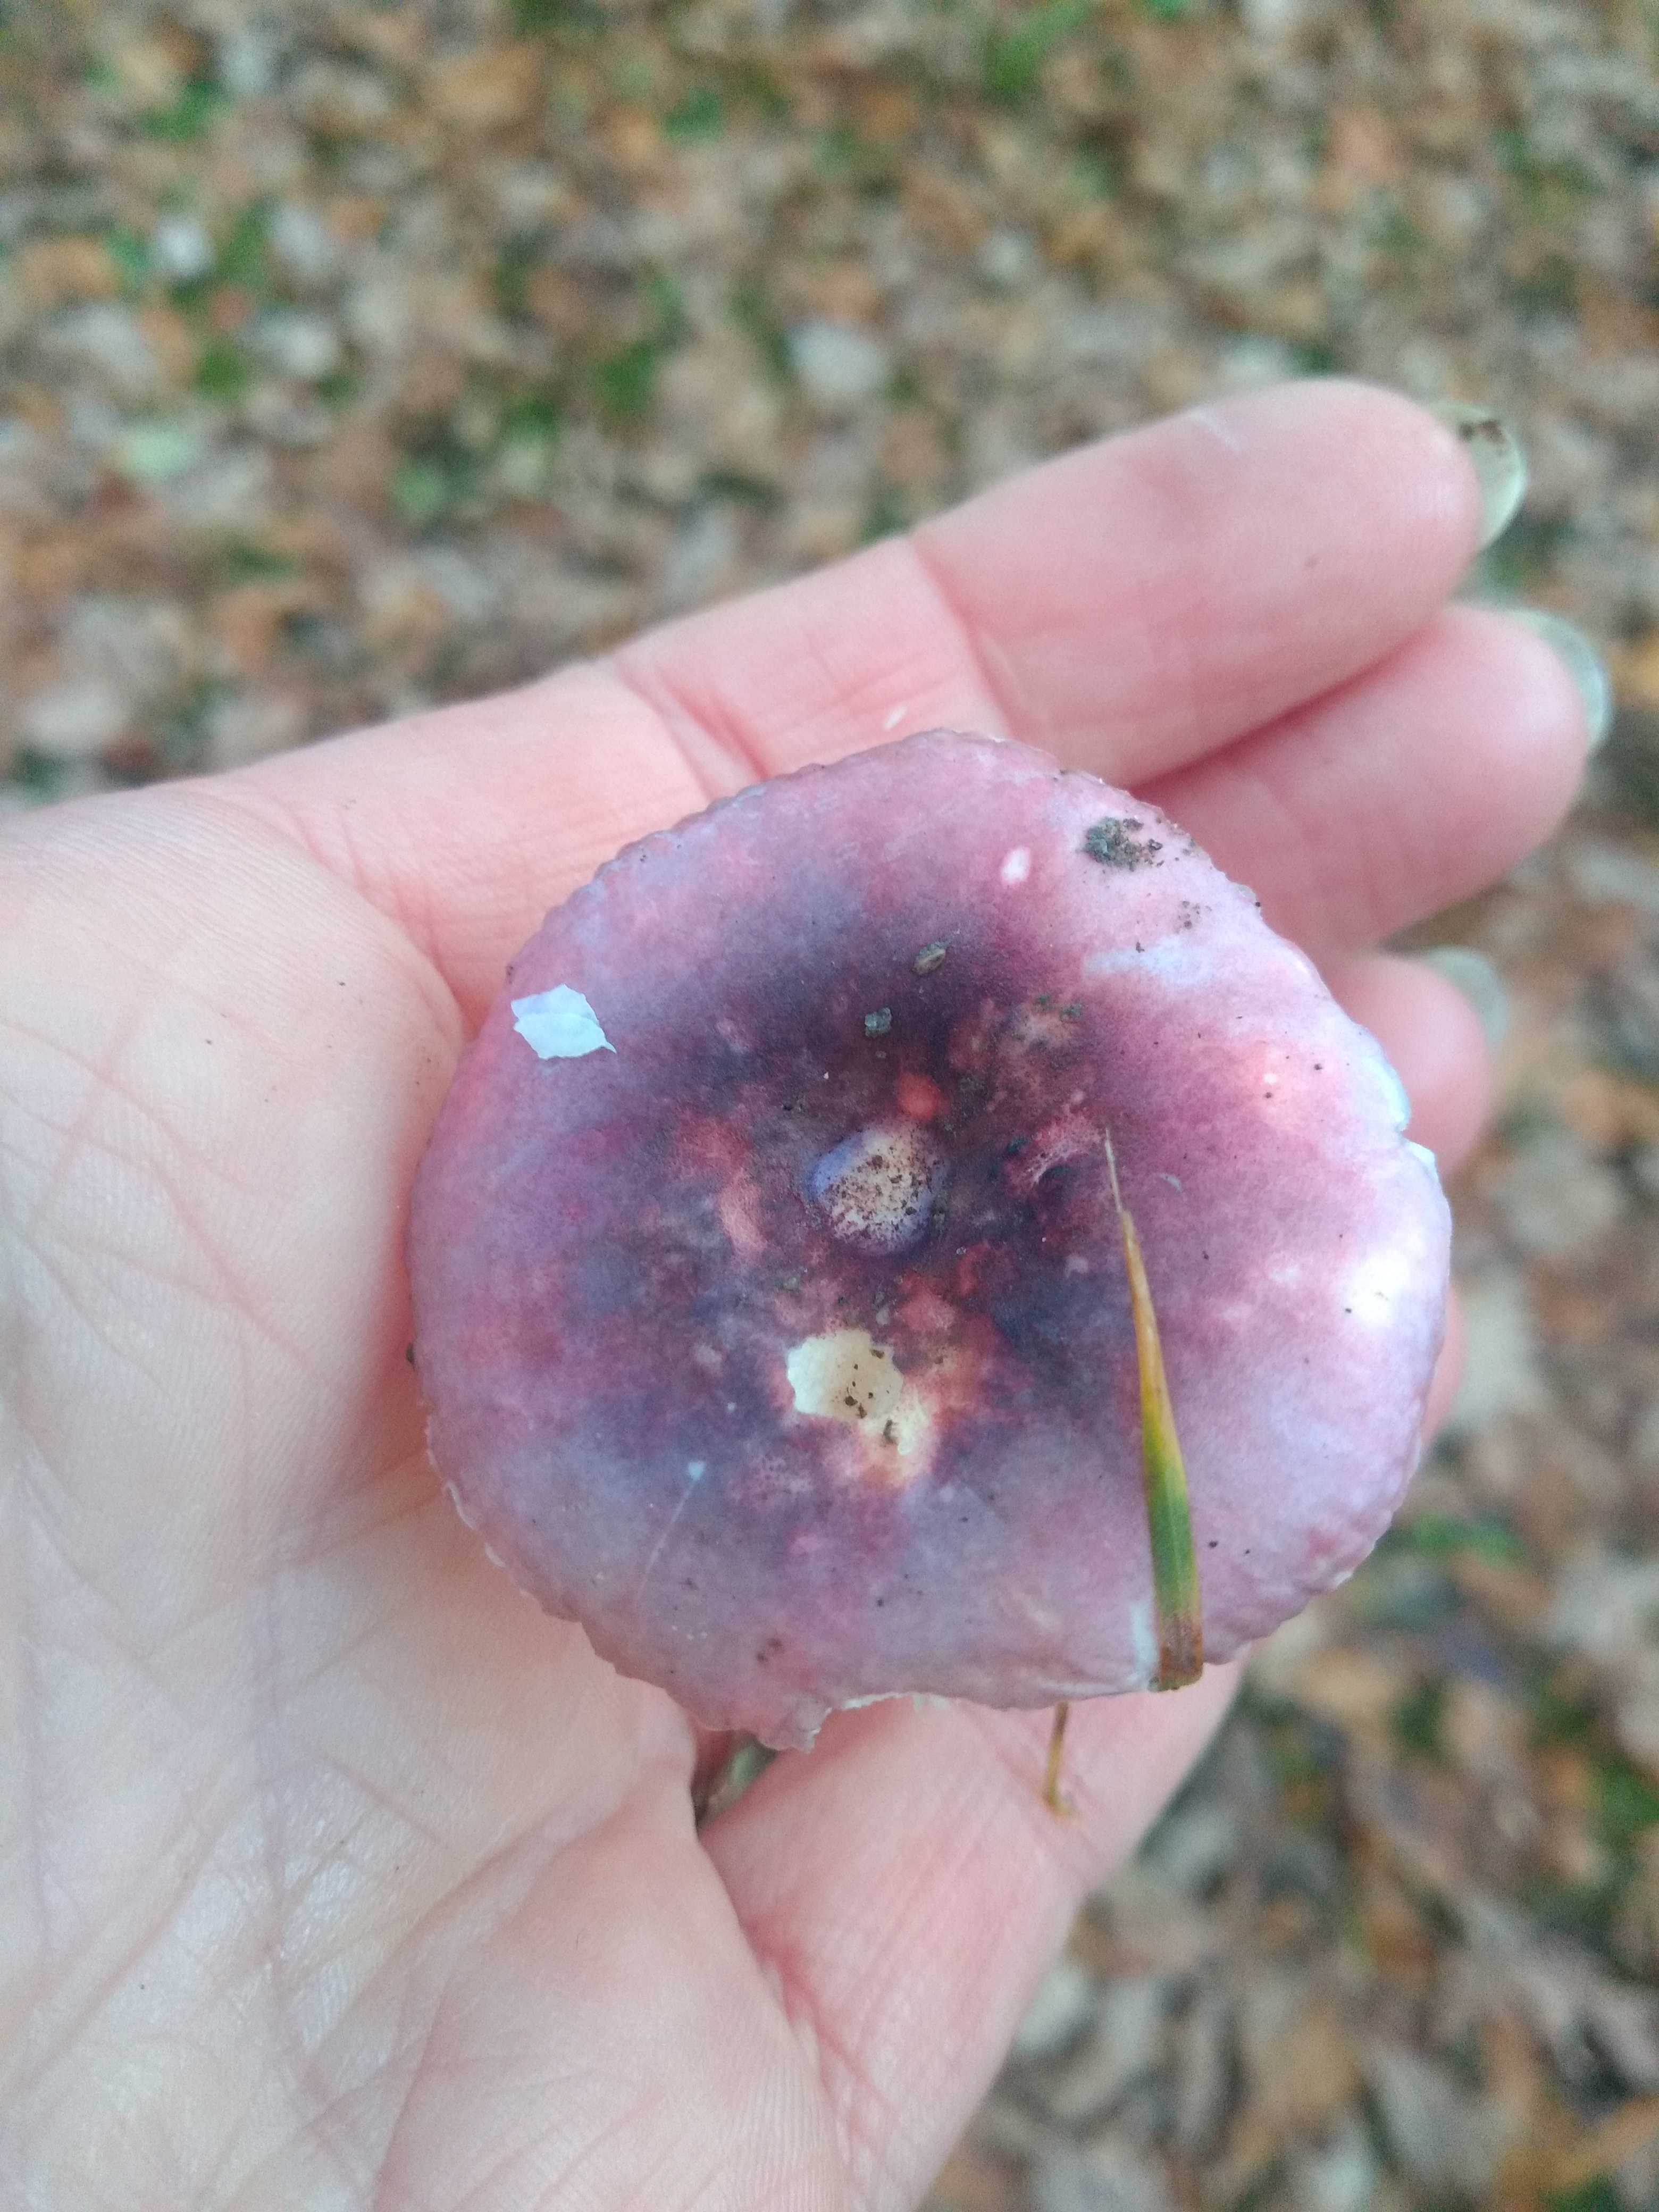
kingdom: Fungi
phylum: Basidiomycota
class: Agaricomycetes
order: Russulales
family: Russulaceae
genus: Russula
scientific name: Russula fragilis
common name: savbladet skørhat
